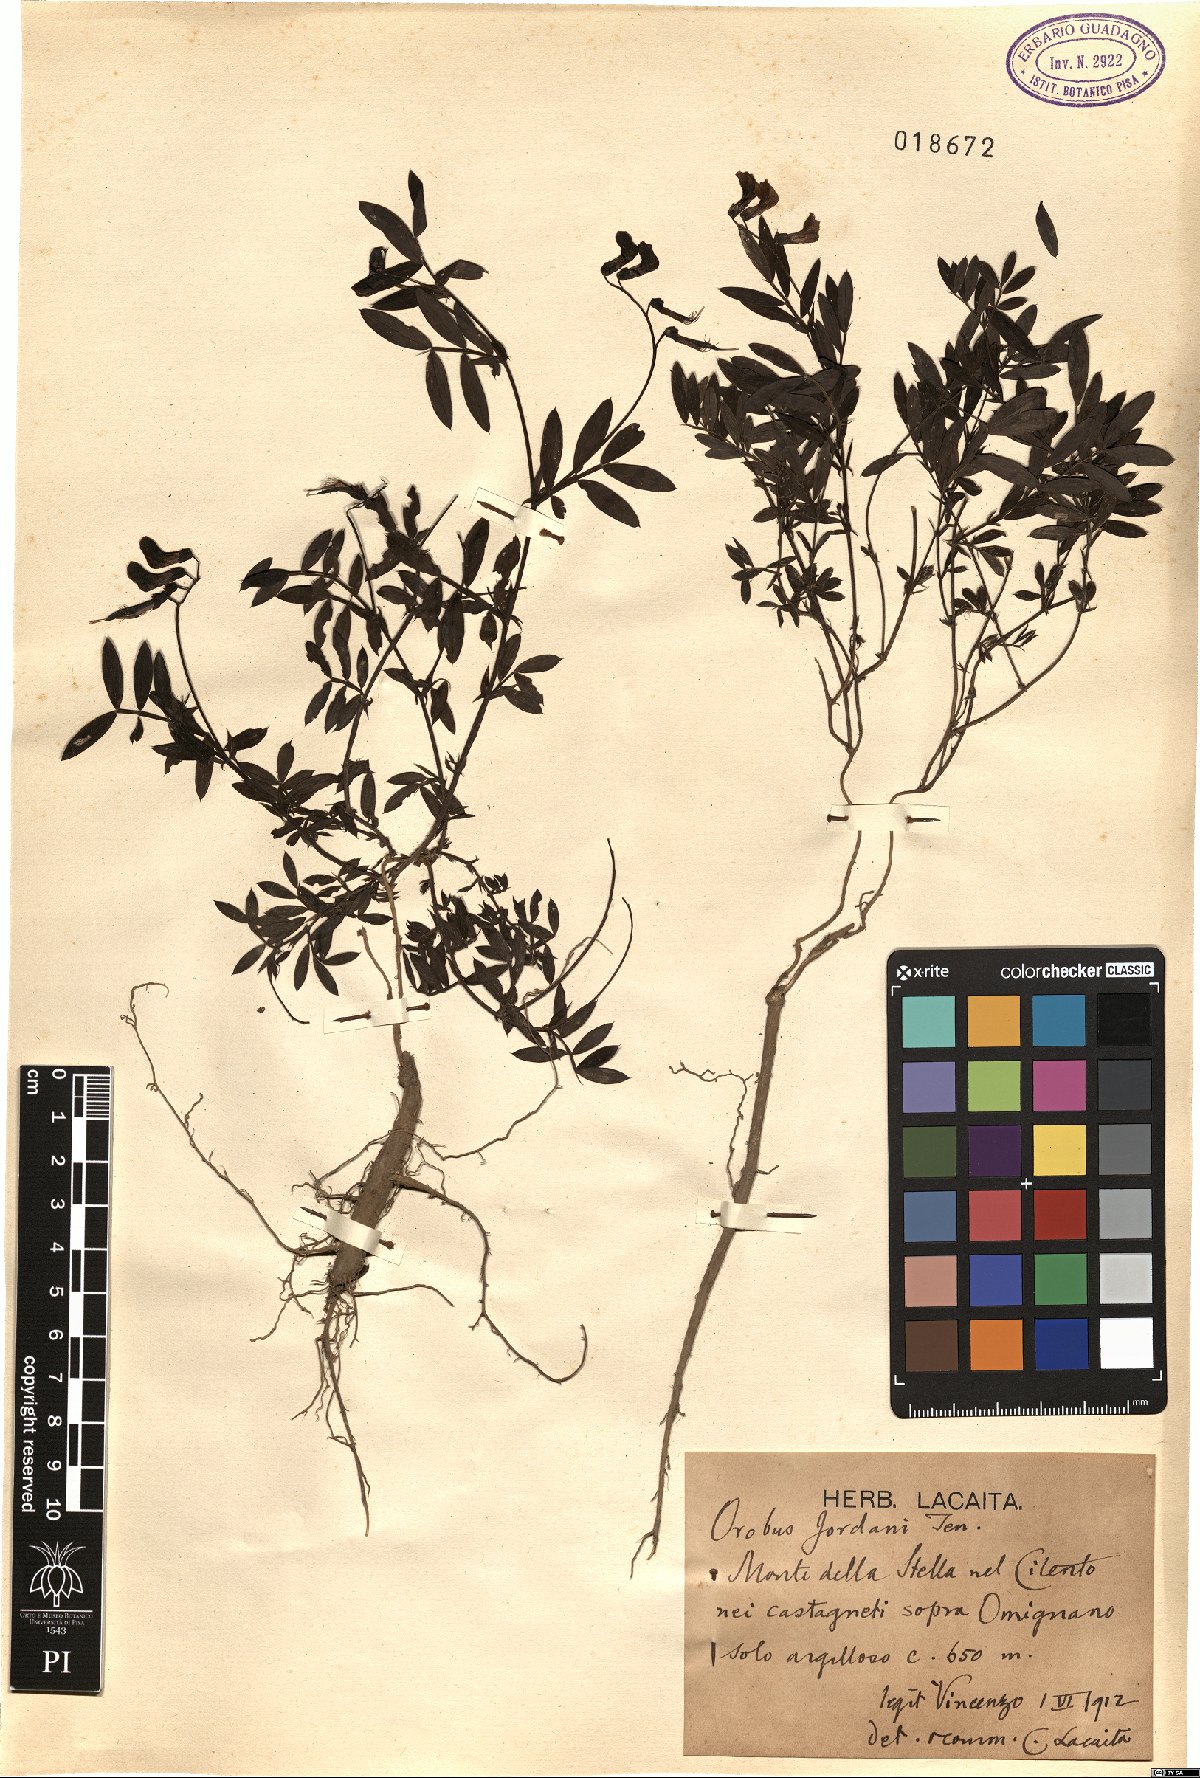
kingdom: Plantae
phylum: Tracheophyta
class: Magnoliopsida
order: Fabales
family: Fabaceae
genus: Lathyrus
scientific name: Lathyrus niger
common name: Black pea
